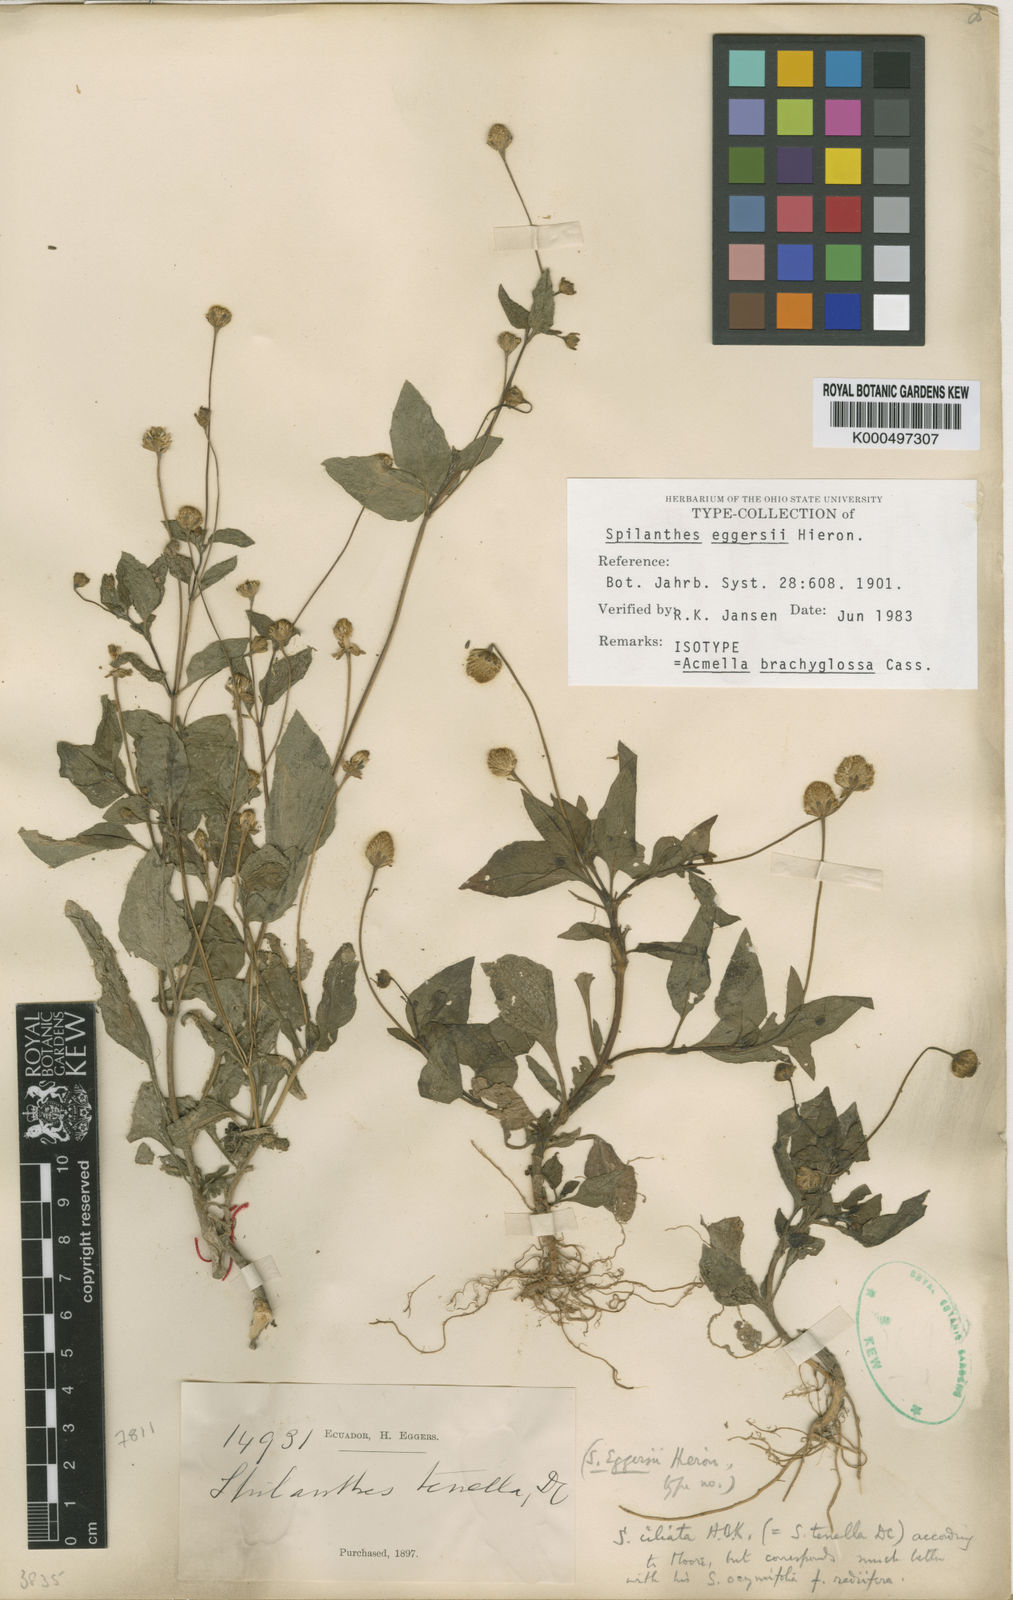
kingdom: Plantae
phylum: Tracheophyta
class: Magnoliopsida
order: Asterales
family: Asteraceae
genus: Acmella
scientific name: Acmella brachyglossa
